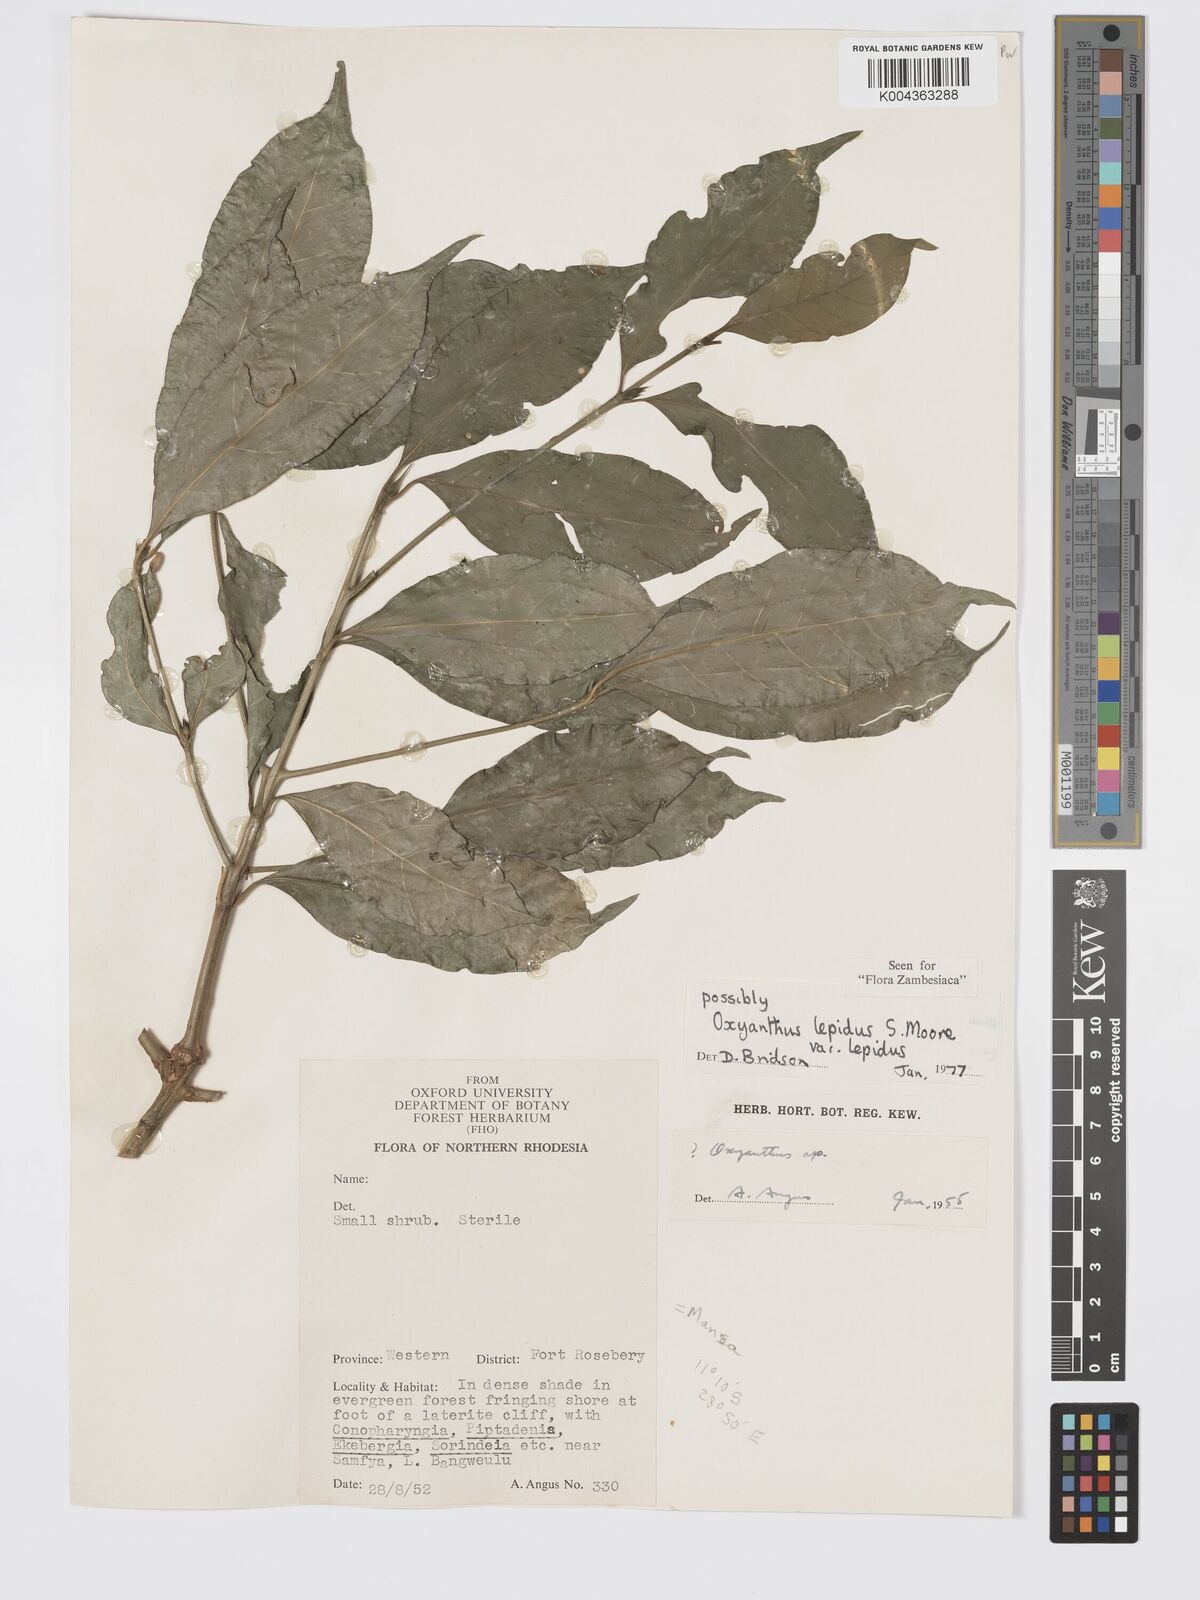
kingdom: Plantae
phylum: Tracheophyta
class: Magnoliopsida
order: Gentianales
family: Rubiaceae
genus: Oxyanthus
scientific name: Oxyanthus lepidus
